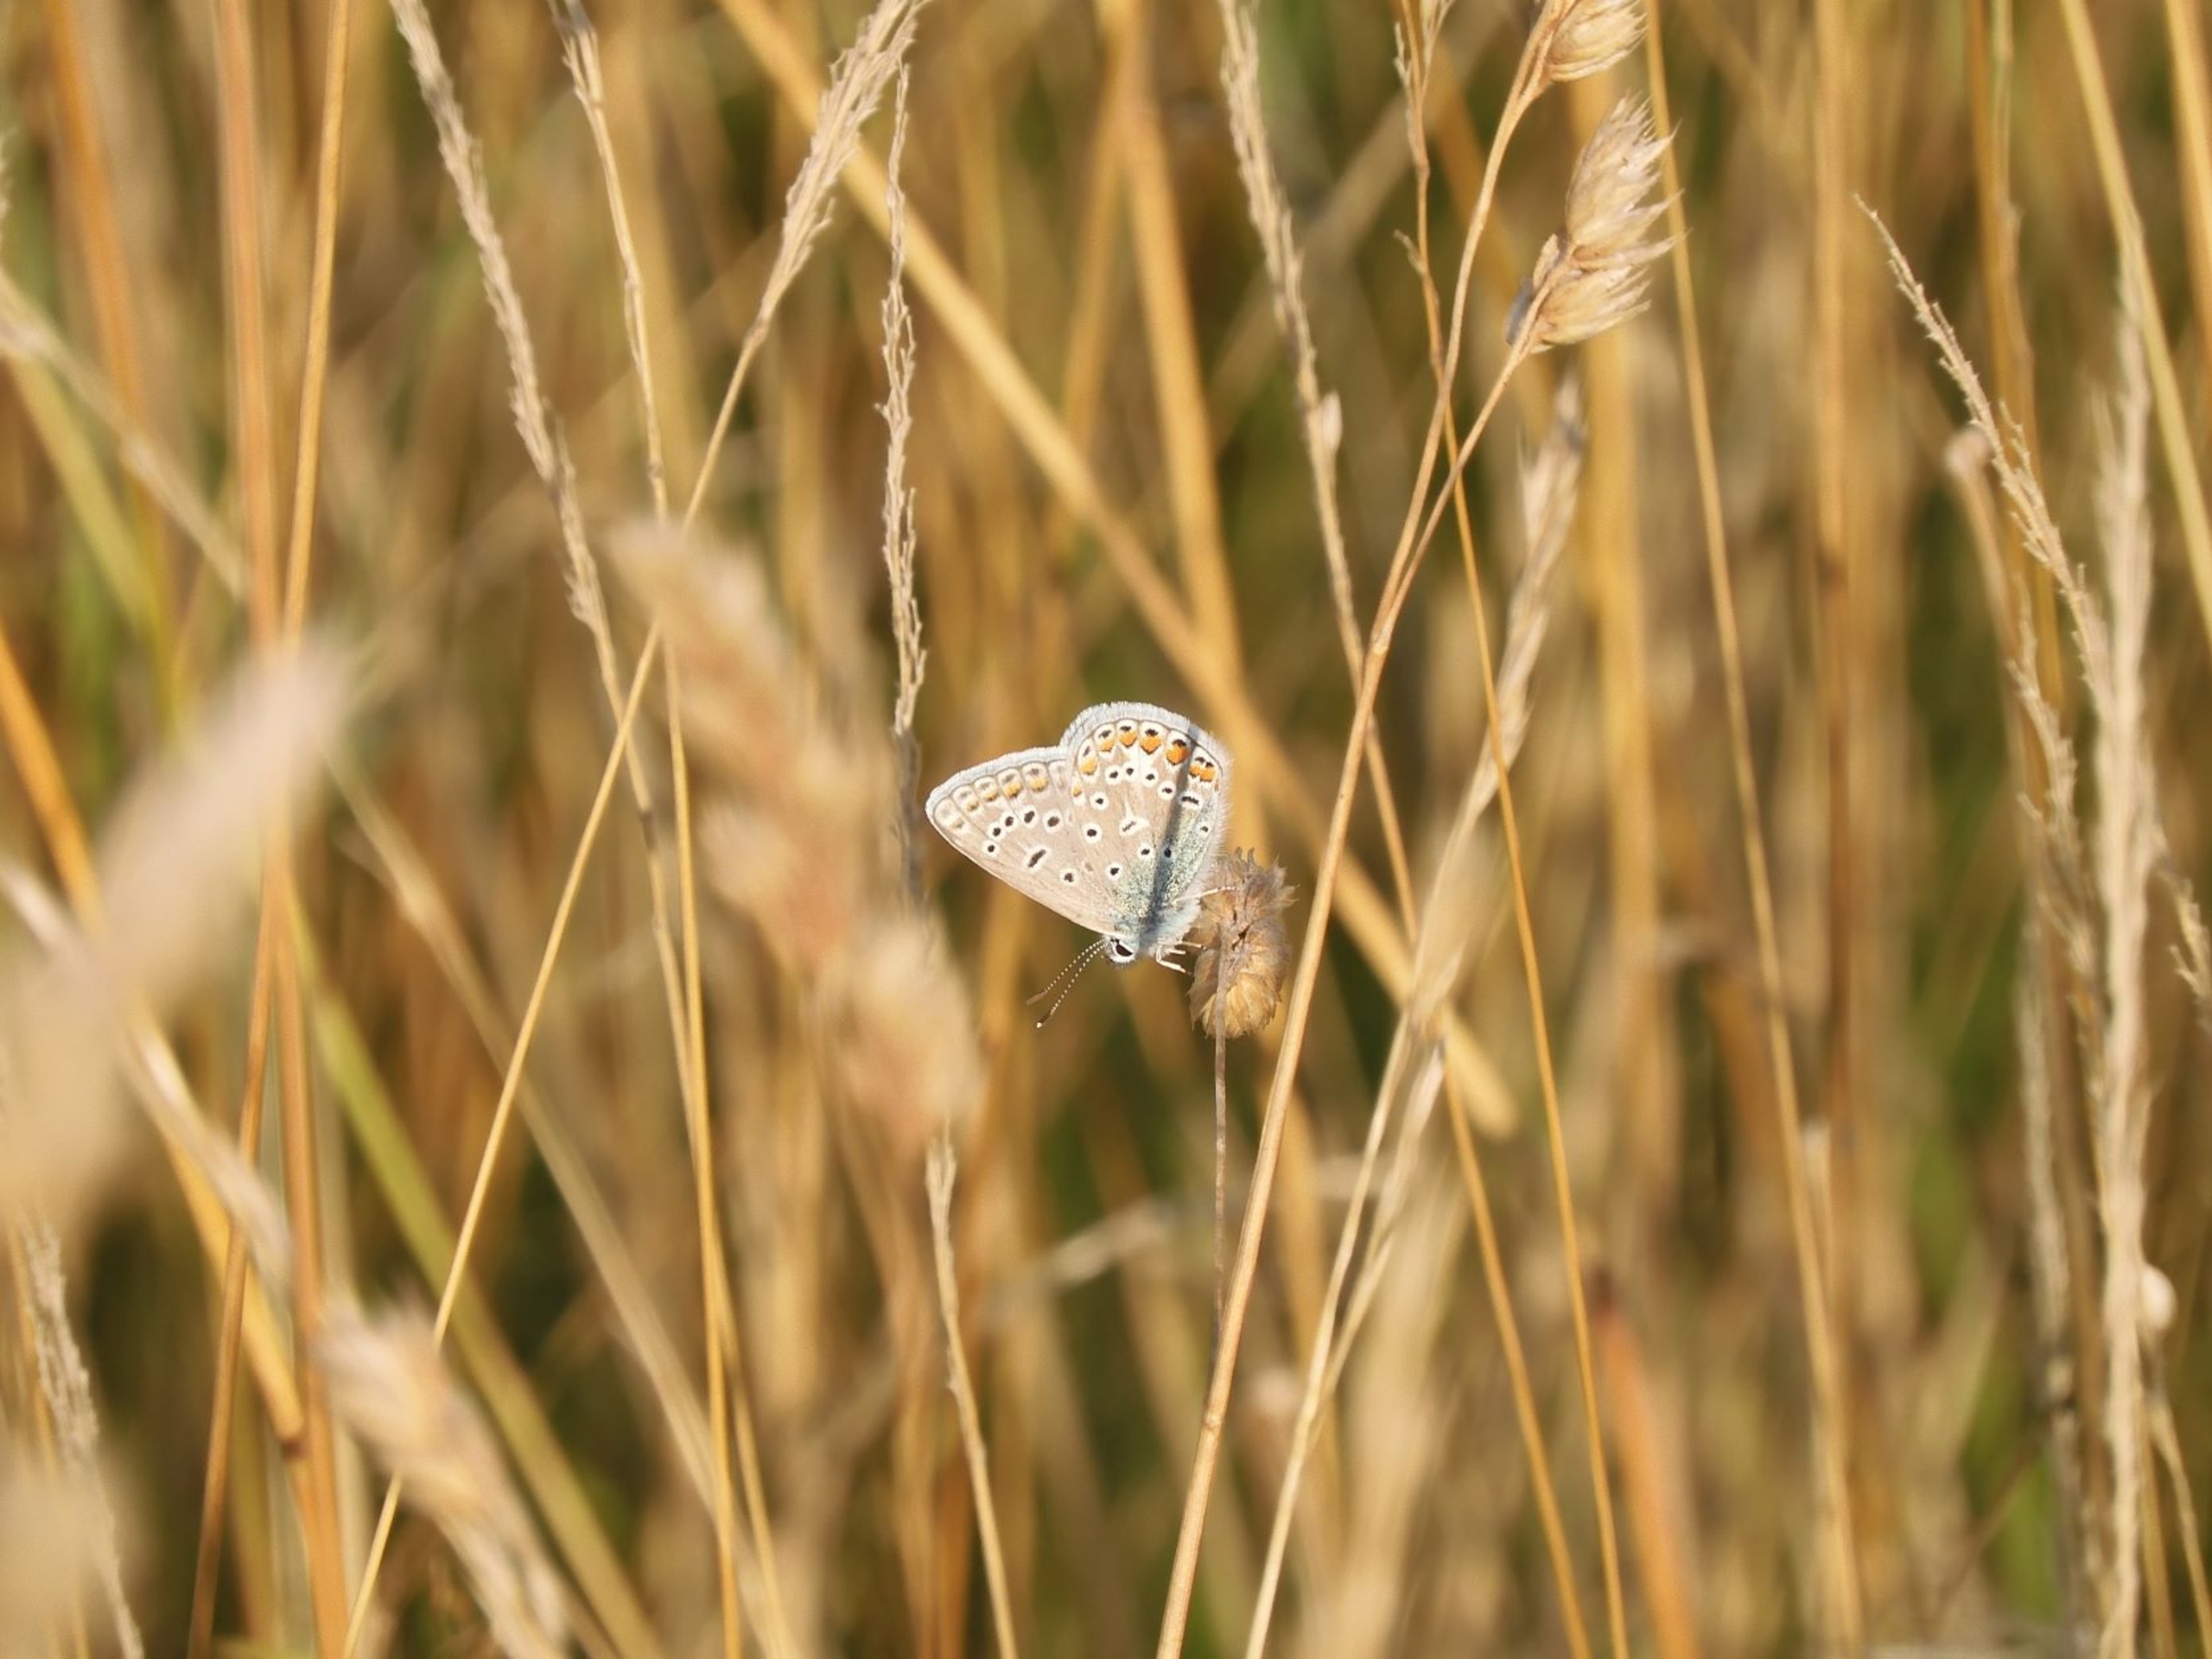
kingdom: Animalia
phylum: Arthropoda
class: Insecta
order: Lepidoptera
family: Lycaenidae
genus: Polyommatus
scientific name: Polyommatus icarus
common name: Almindelig blåfugl
